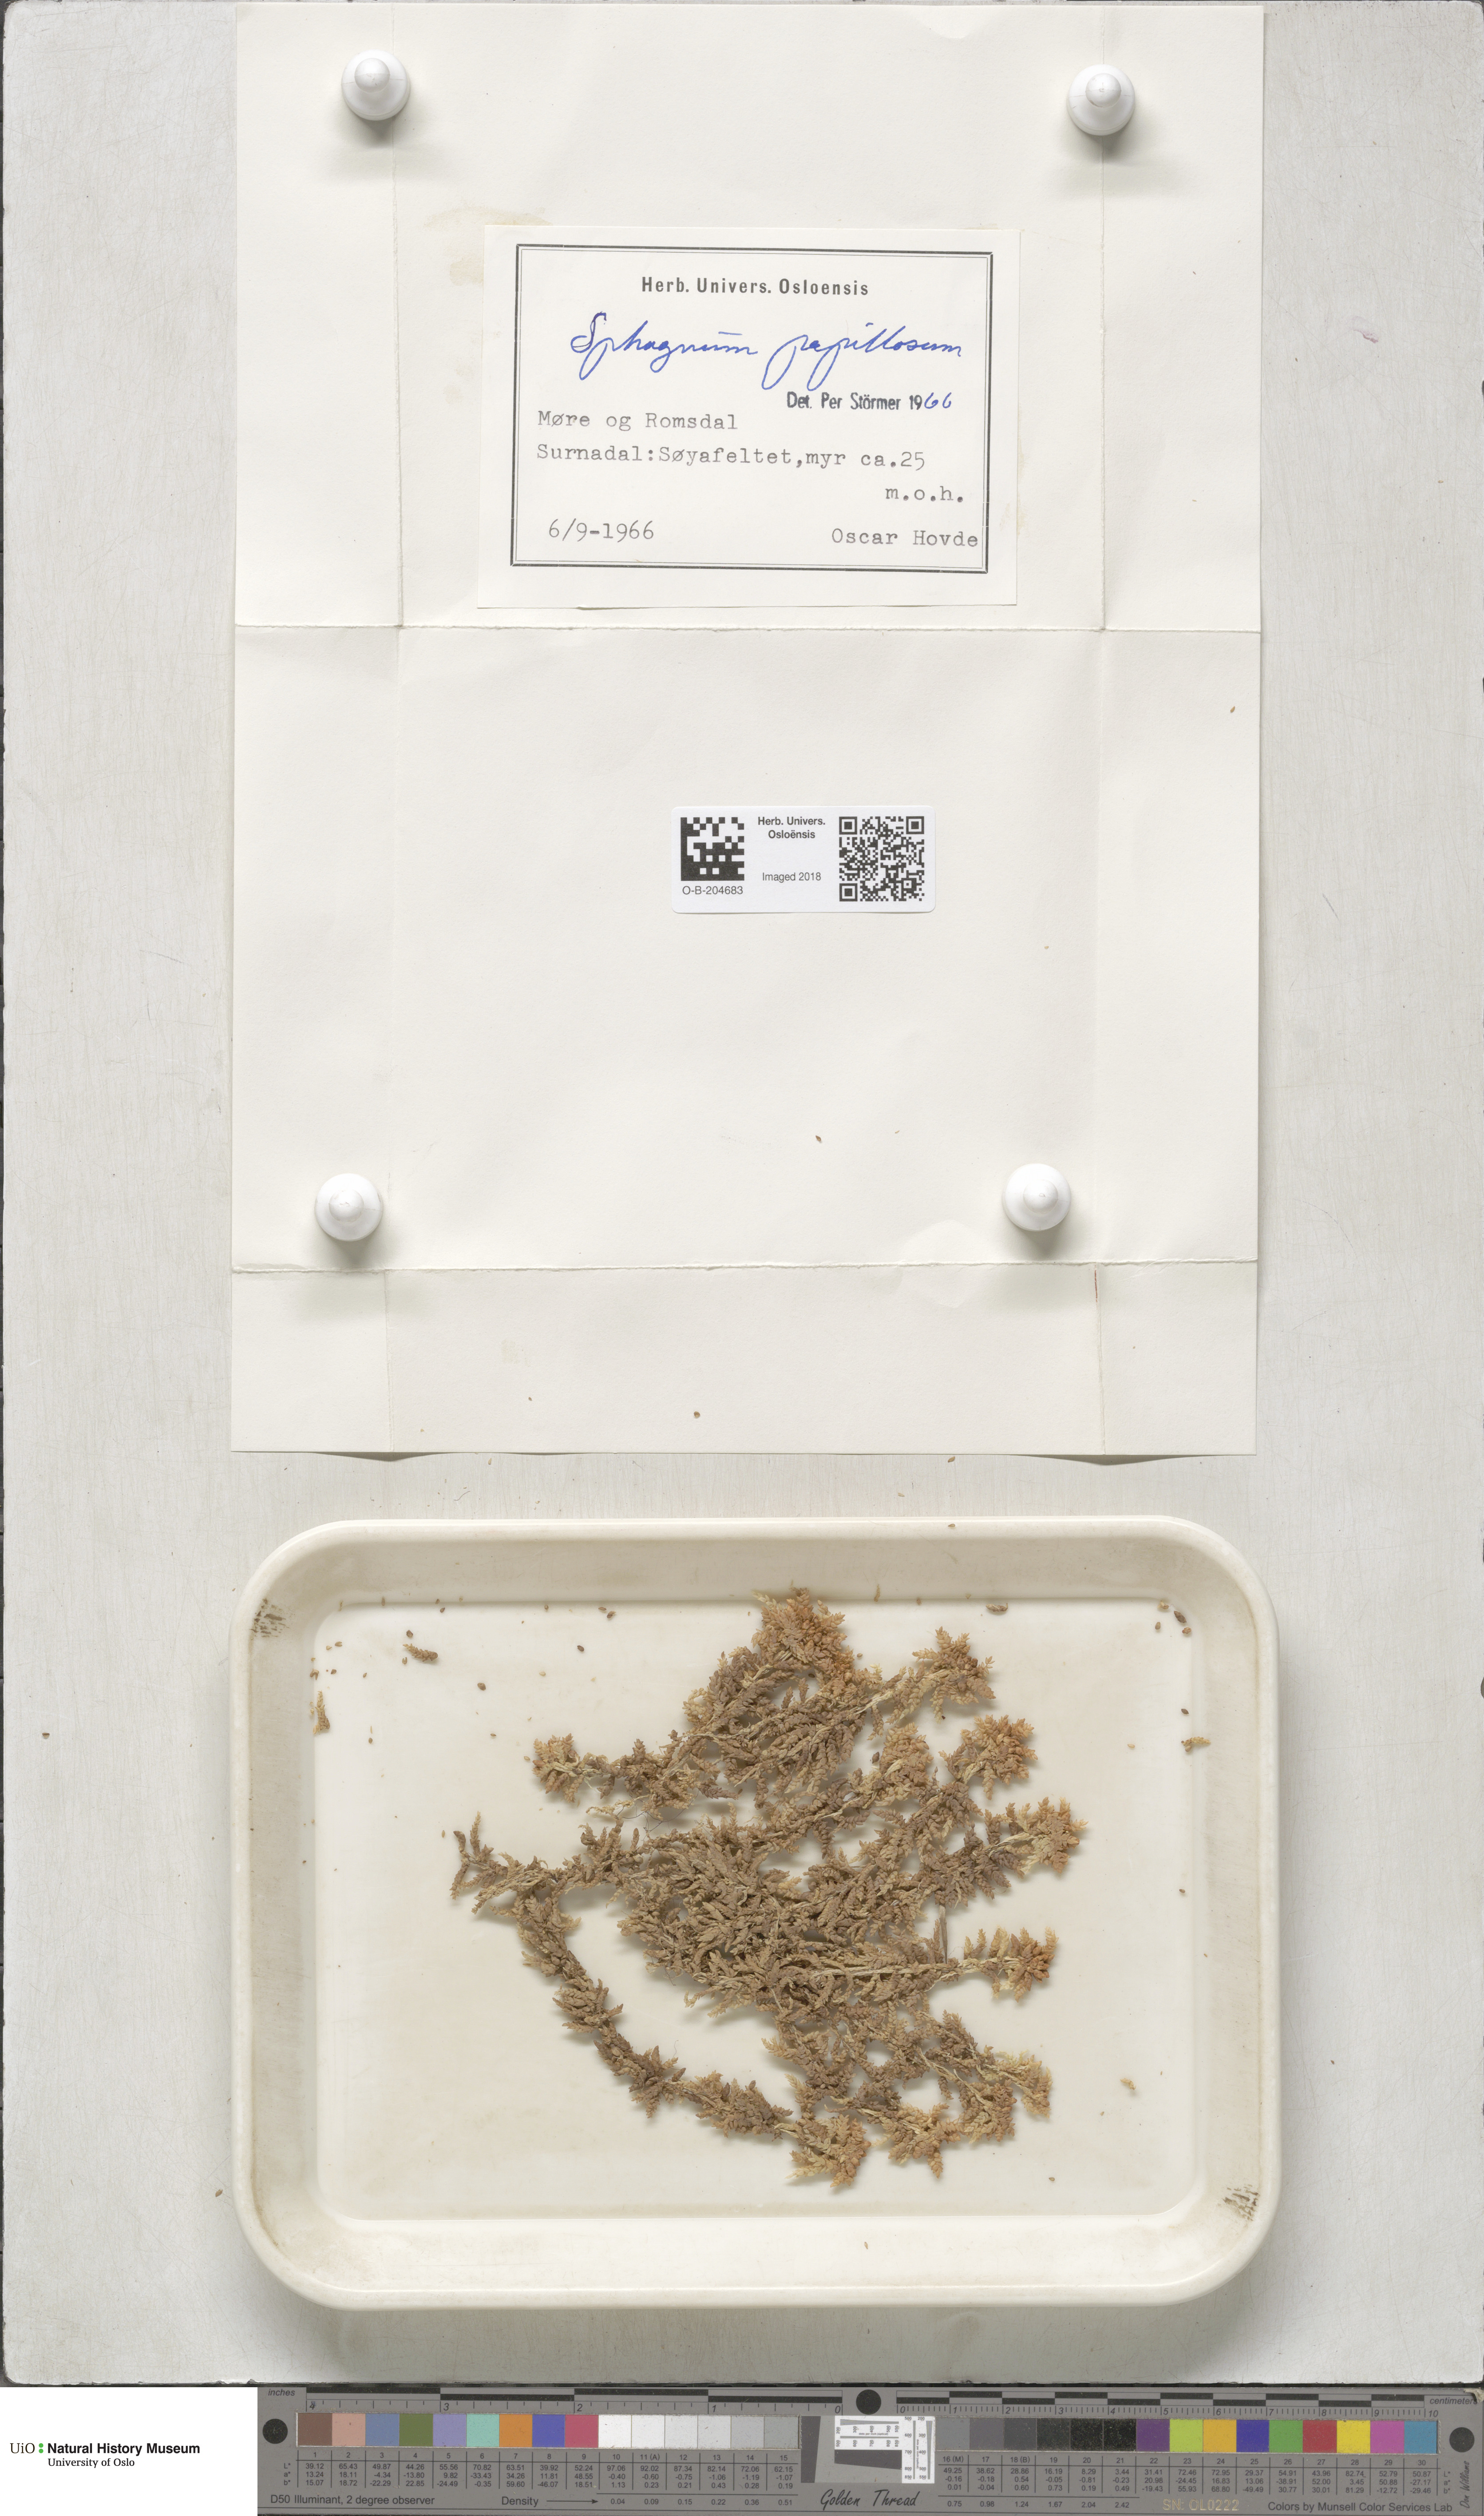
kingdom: Plantae
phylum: Bryophyta
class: Sphagnopsida
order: Sphagnales
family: Sphagnaceae
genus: Sphagnum
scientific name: Sphagnum papillosum
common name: Papillose peat moss
